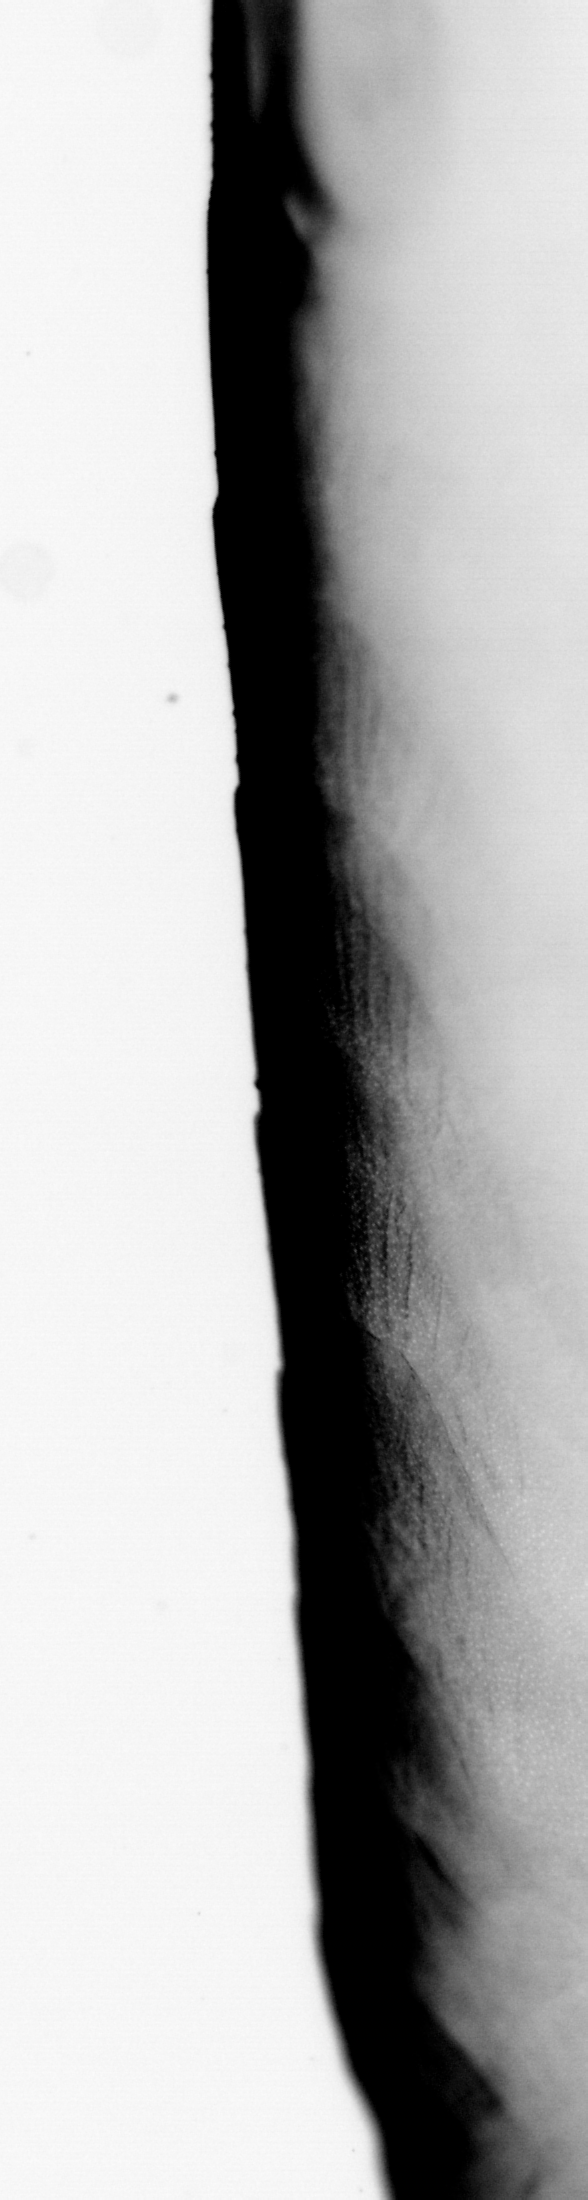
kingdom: Animalia
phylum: Chordata
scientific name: Chordata
